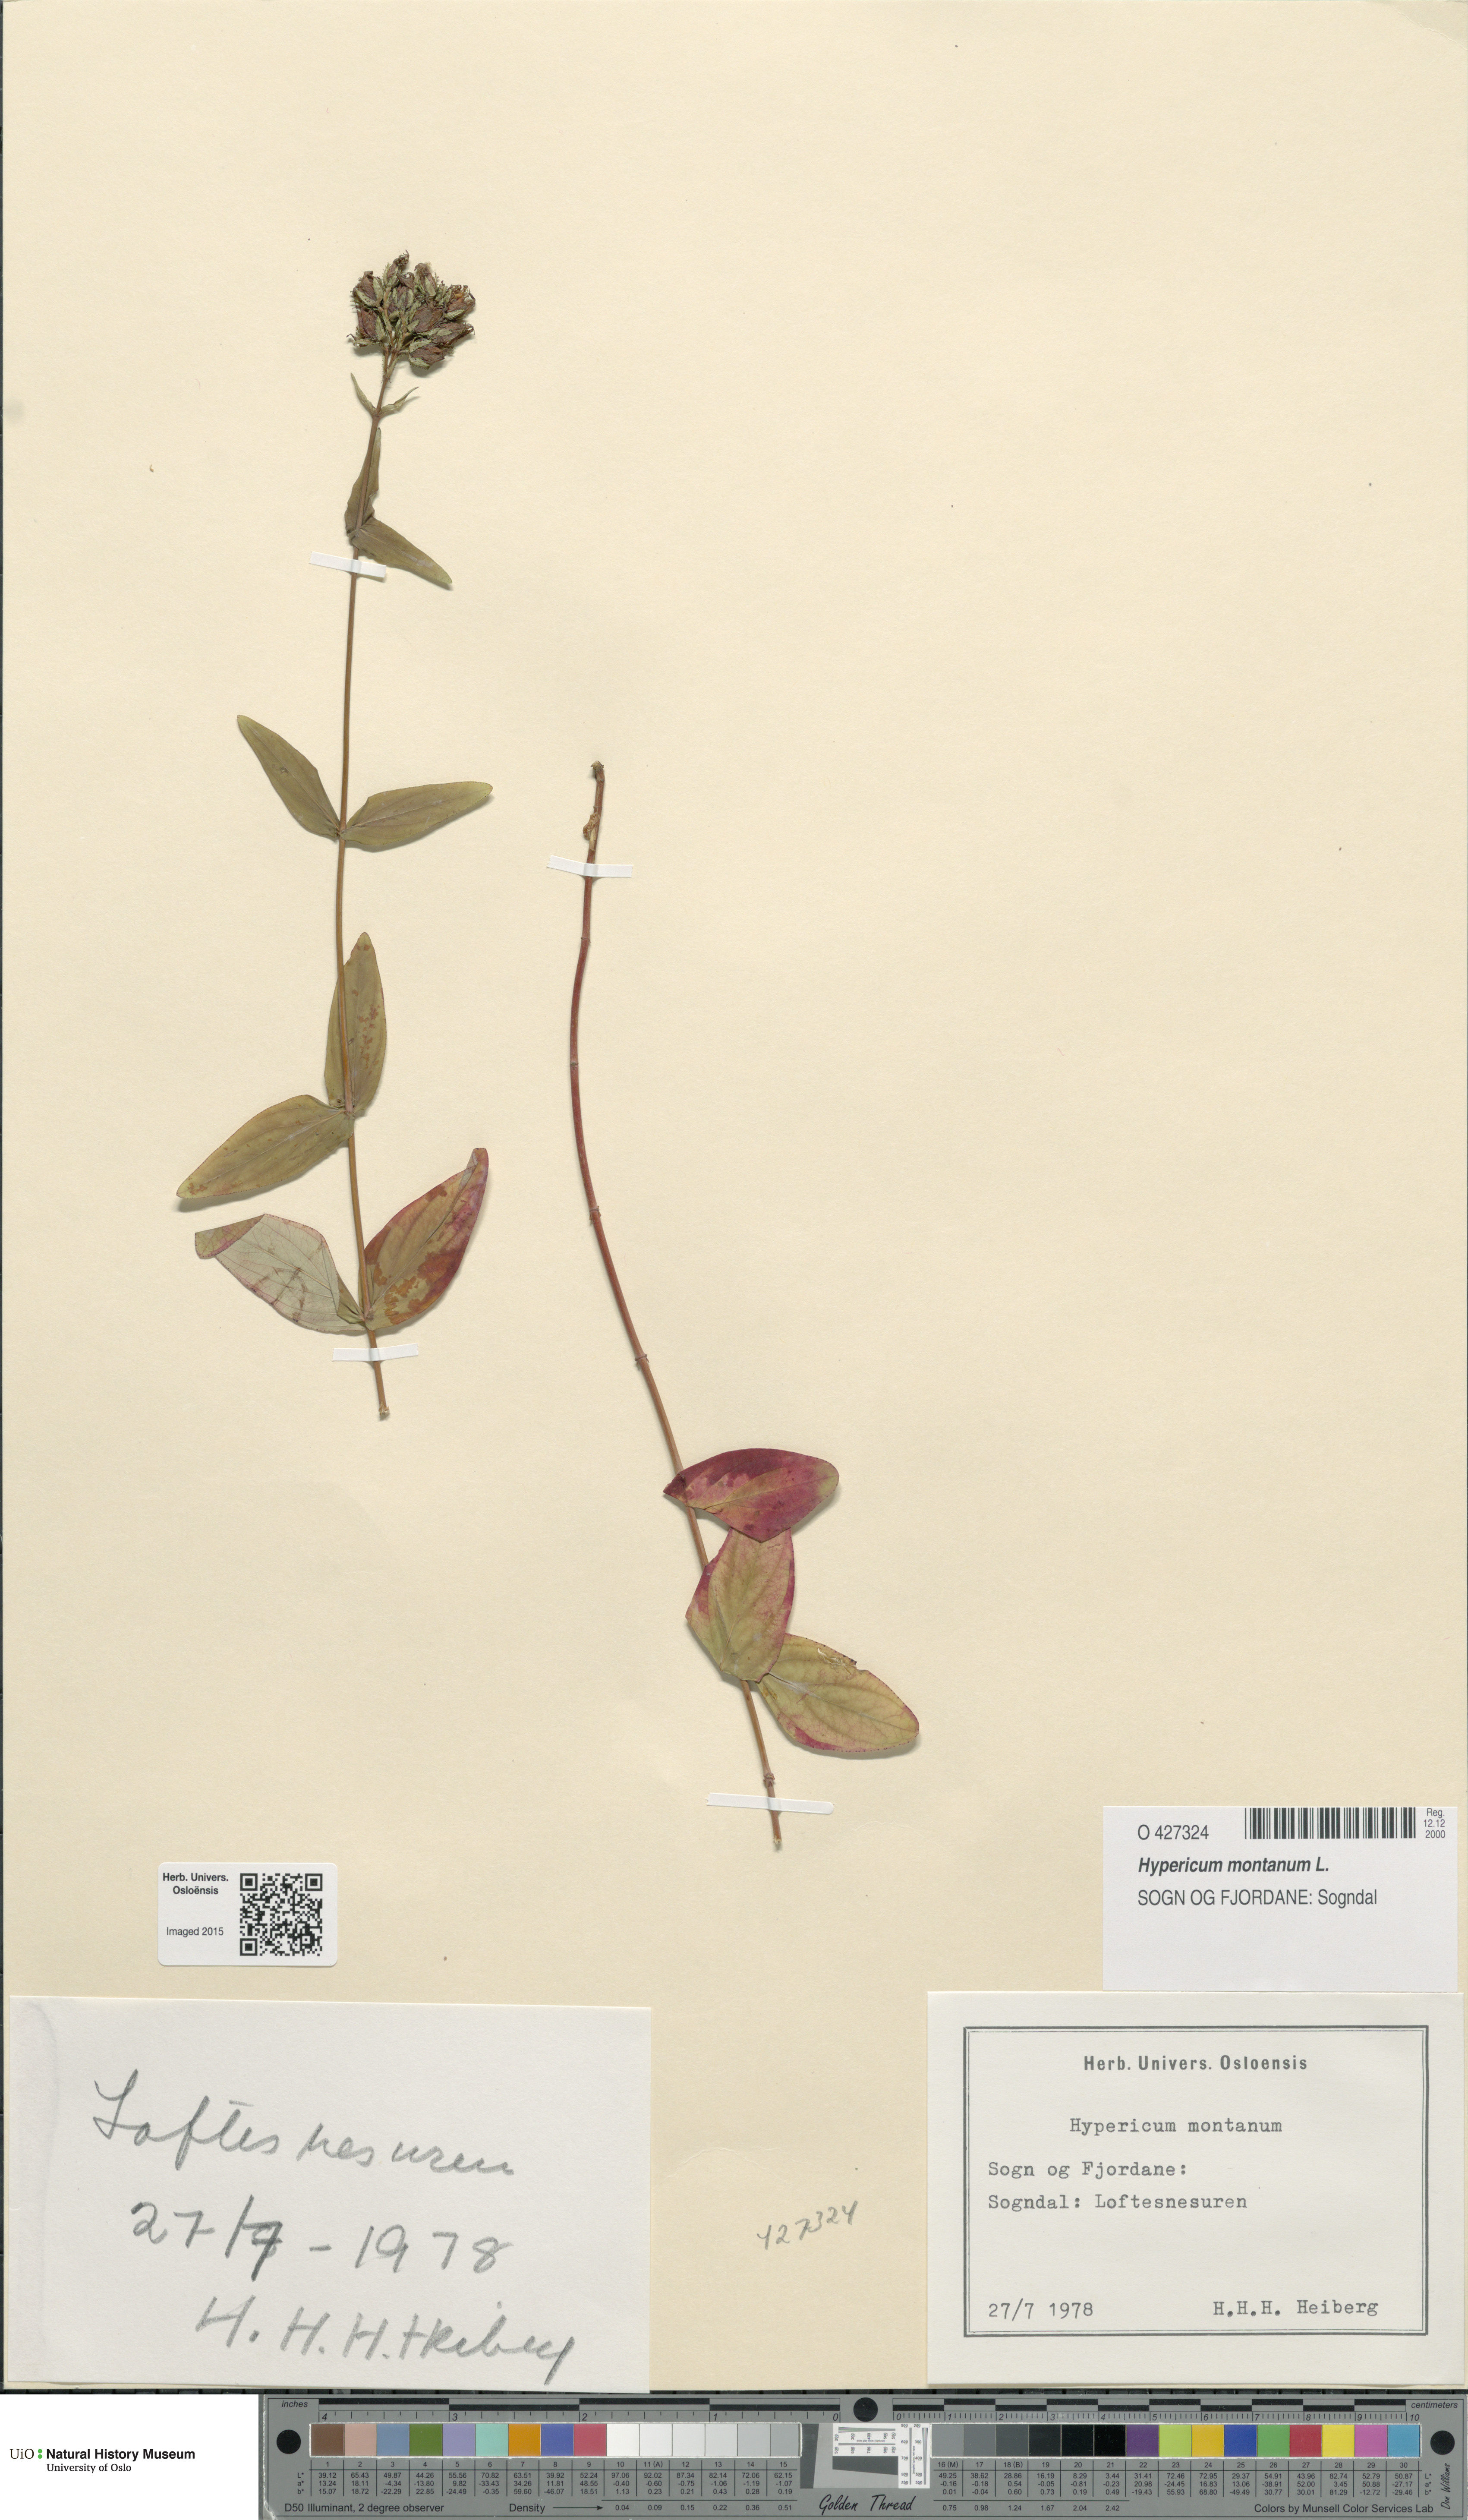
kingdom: Plantae
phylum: Tracheophyta
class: Magnoliopsida
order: Malpighiales
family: Hypericaceae
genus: Hypericum
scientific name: Hypericum montanum
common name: Pale st. john's-wort
